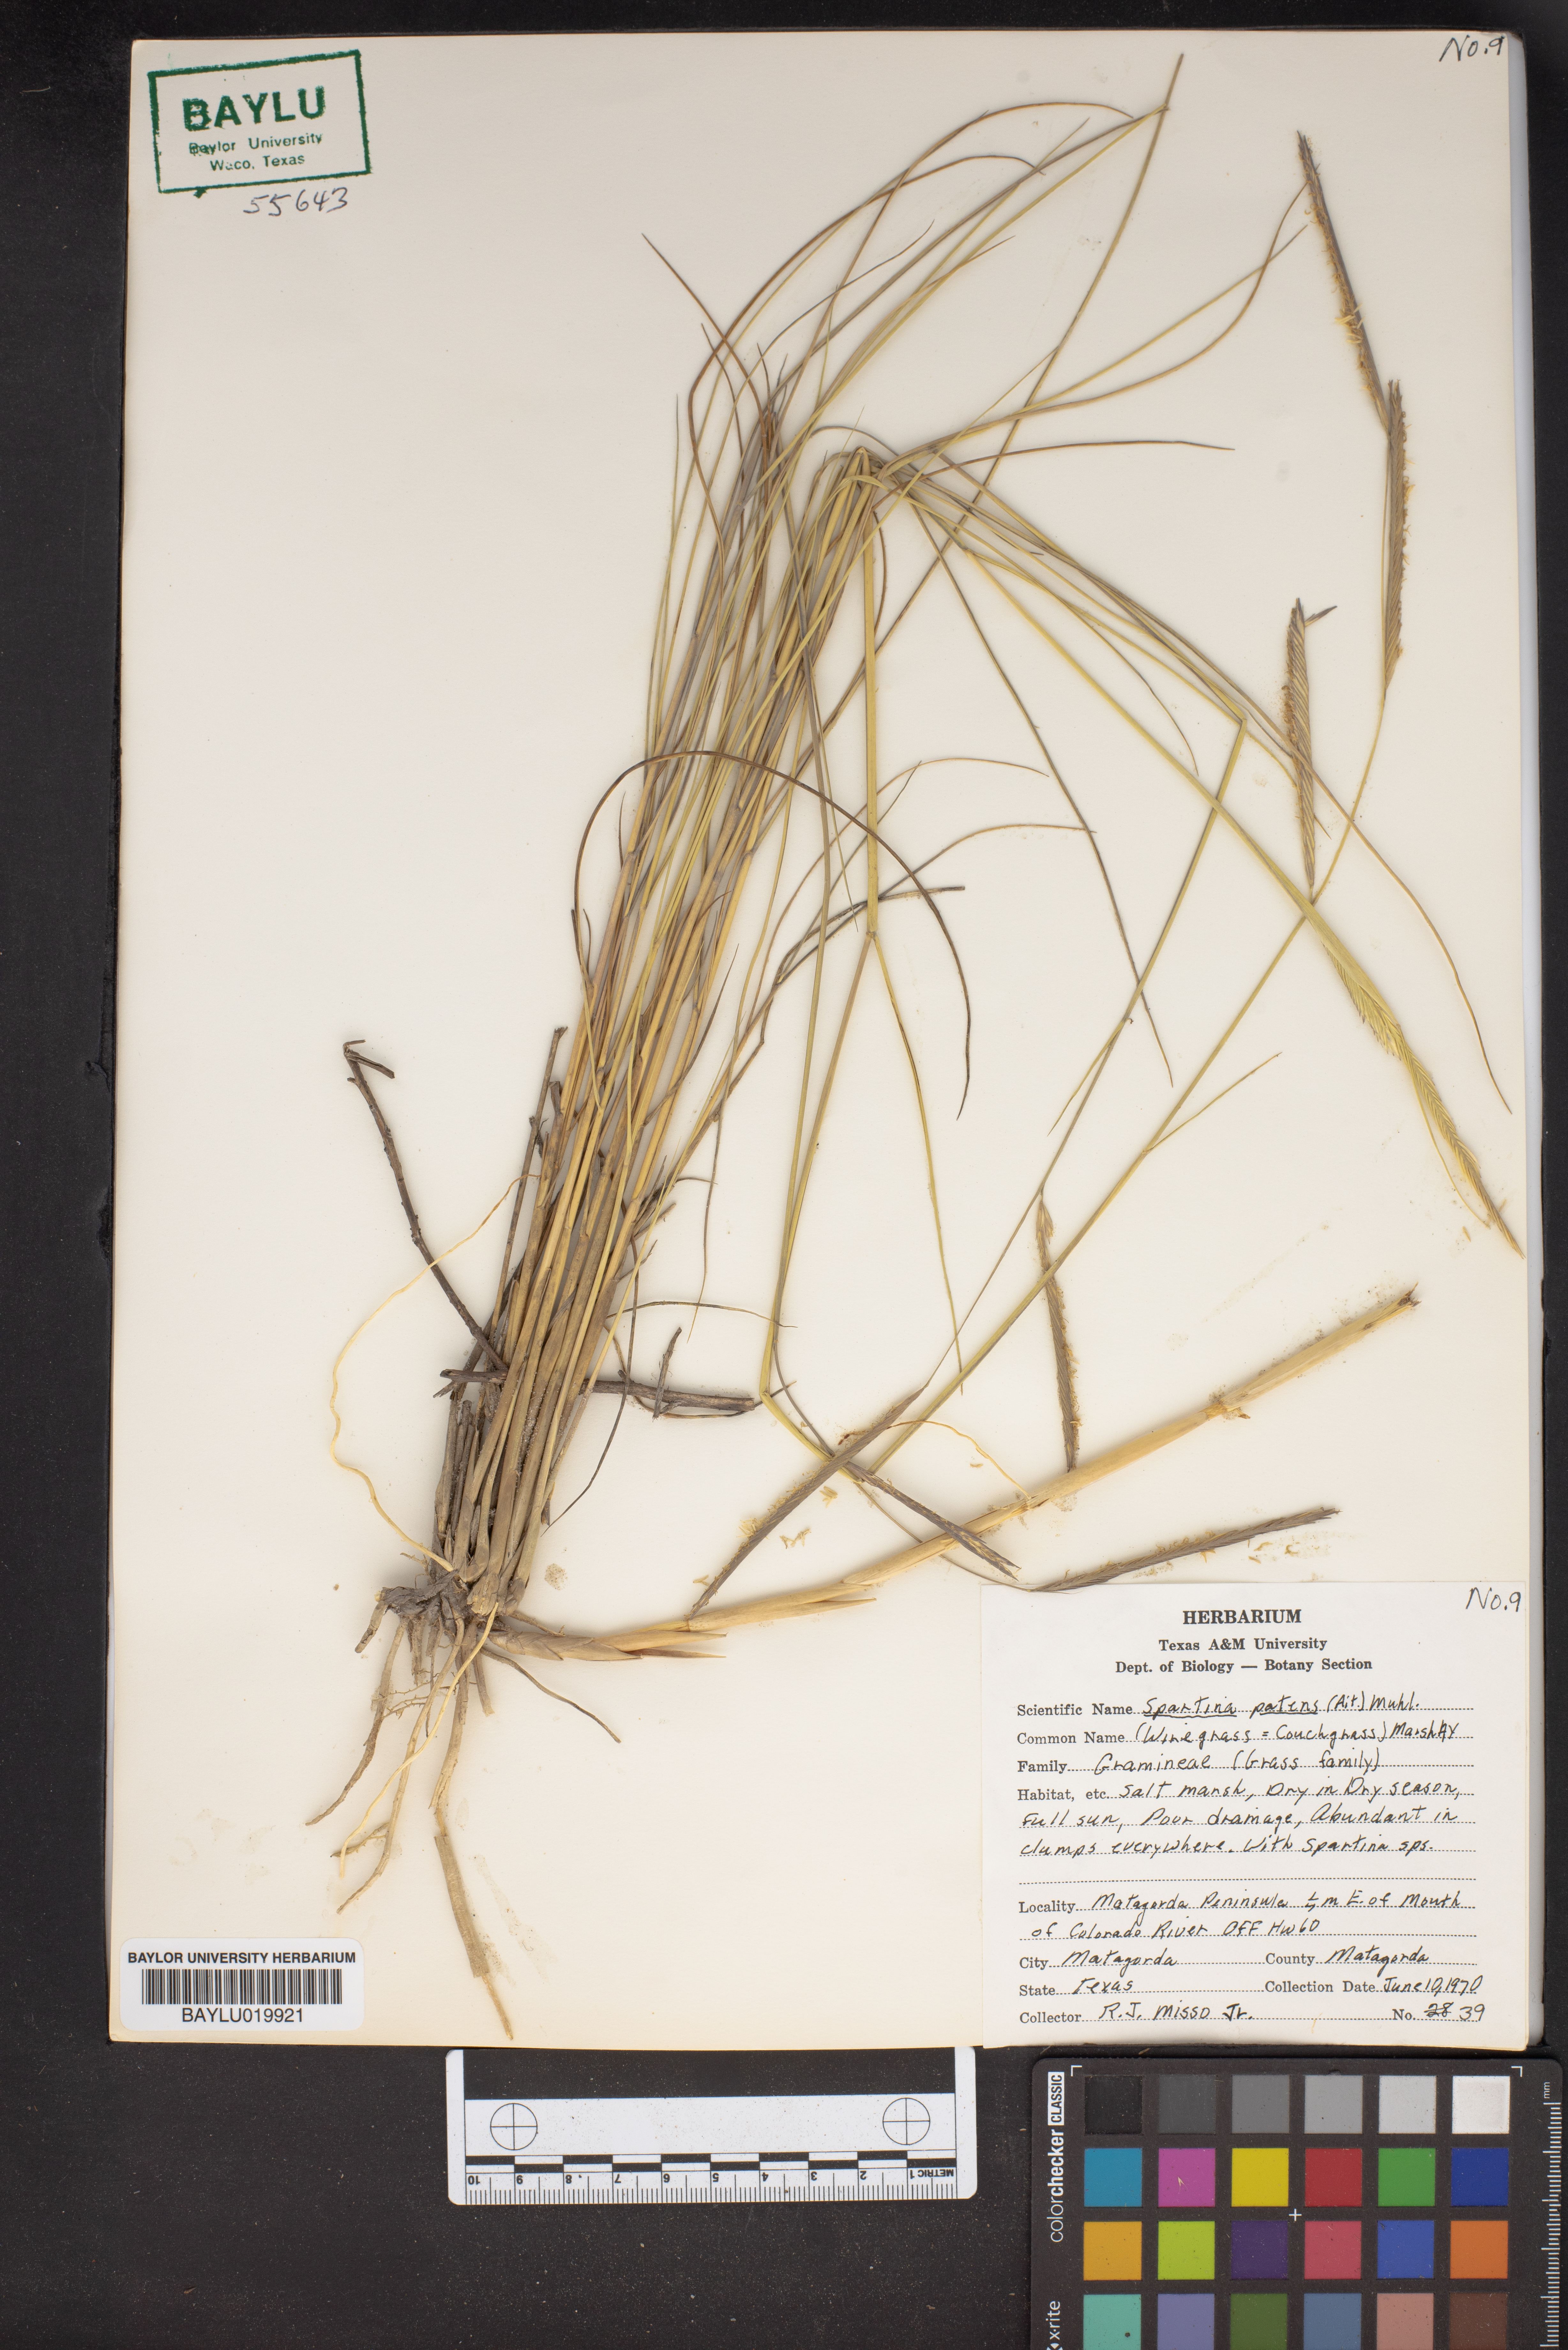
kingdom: Plantae
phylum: Tracheophyta
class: Liliopsida
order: Poales
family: Poaceae
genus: Sporobolus
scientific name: Sporobolus pumilus
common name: Highwater grass
